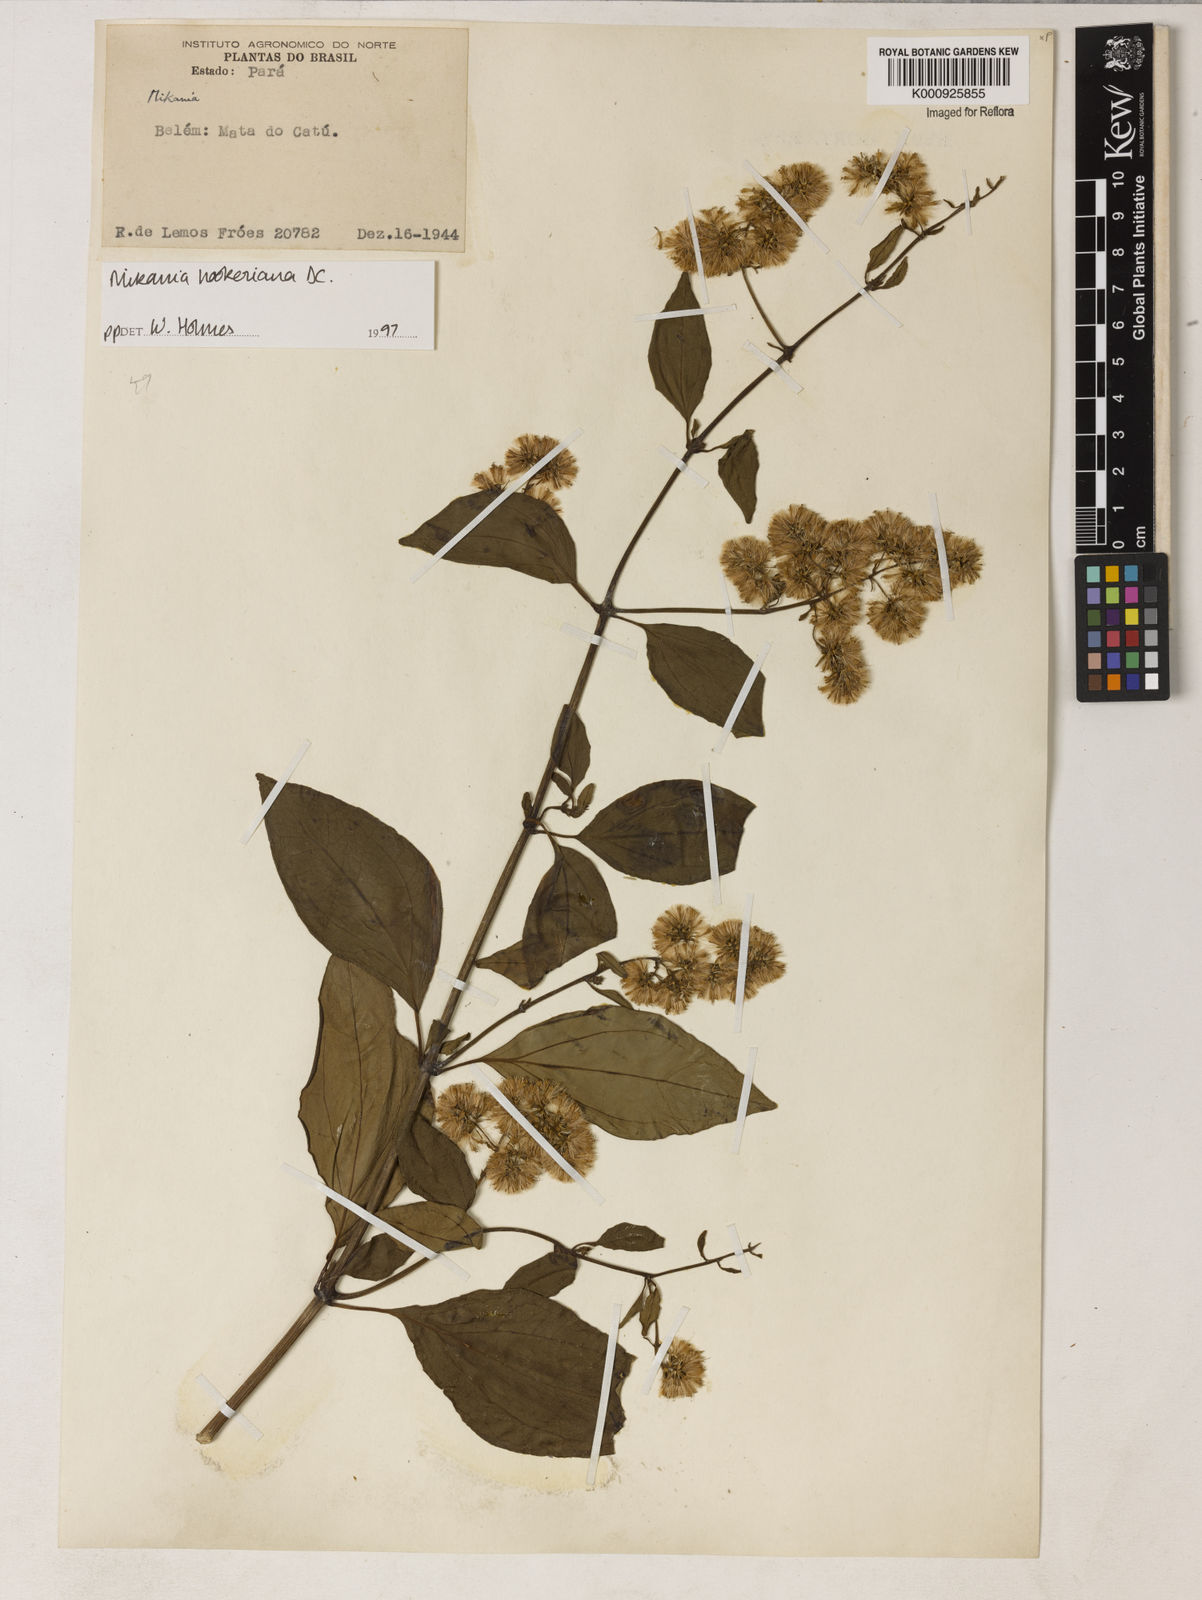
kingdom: Plantae
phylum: Tracheophyta
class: Magnoliopsida
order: Asterales
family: Asteraceae
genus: Mikania
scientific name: Mikania
